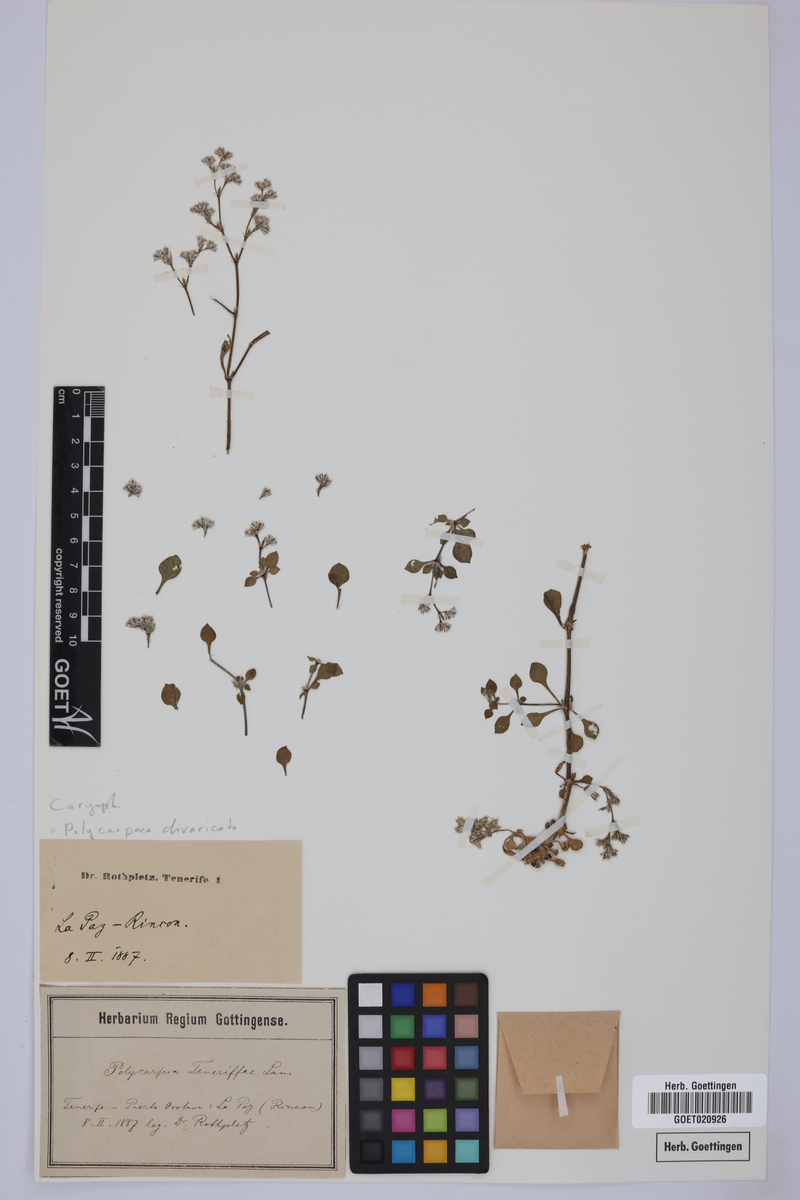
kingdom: Plantae
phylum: Tracheophyta
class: Magnoliopsida
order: Caryophyllales
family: Caryophyllaceae
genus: Polycarpaea
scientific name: Polycarpaea divaricata
